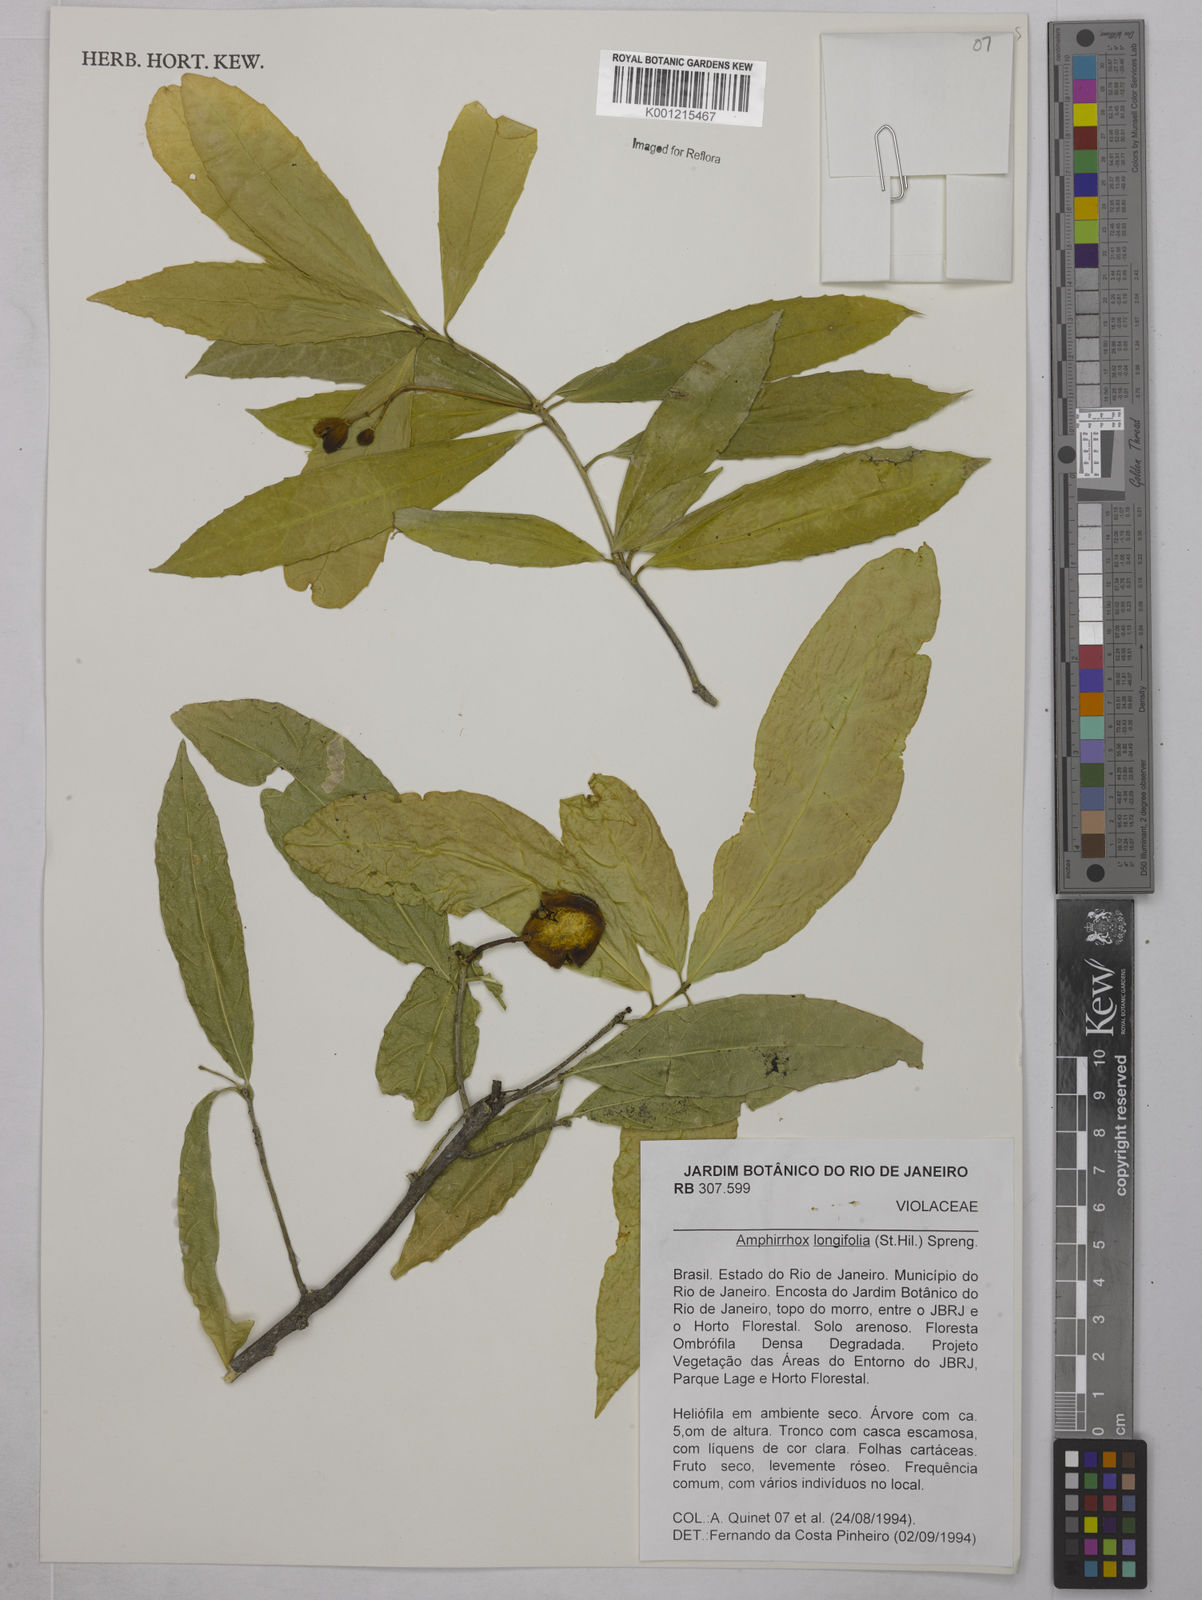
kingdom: Plantae
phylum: Tracheophyta
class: Magnoliopsida
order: Malpighiales
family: Violaceae
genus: Amphirrhox
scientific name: Amphirrhox longifolia
